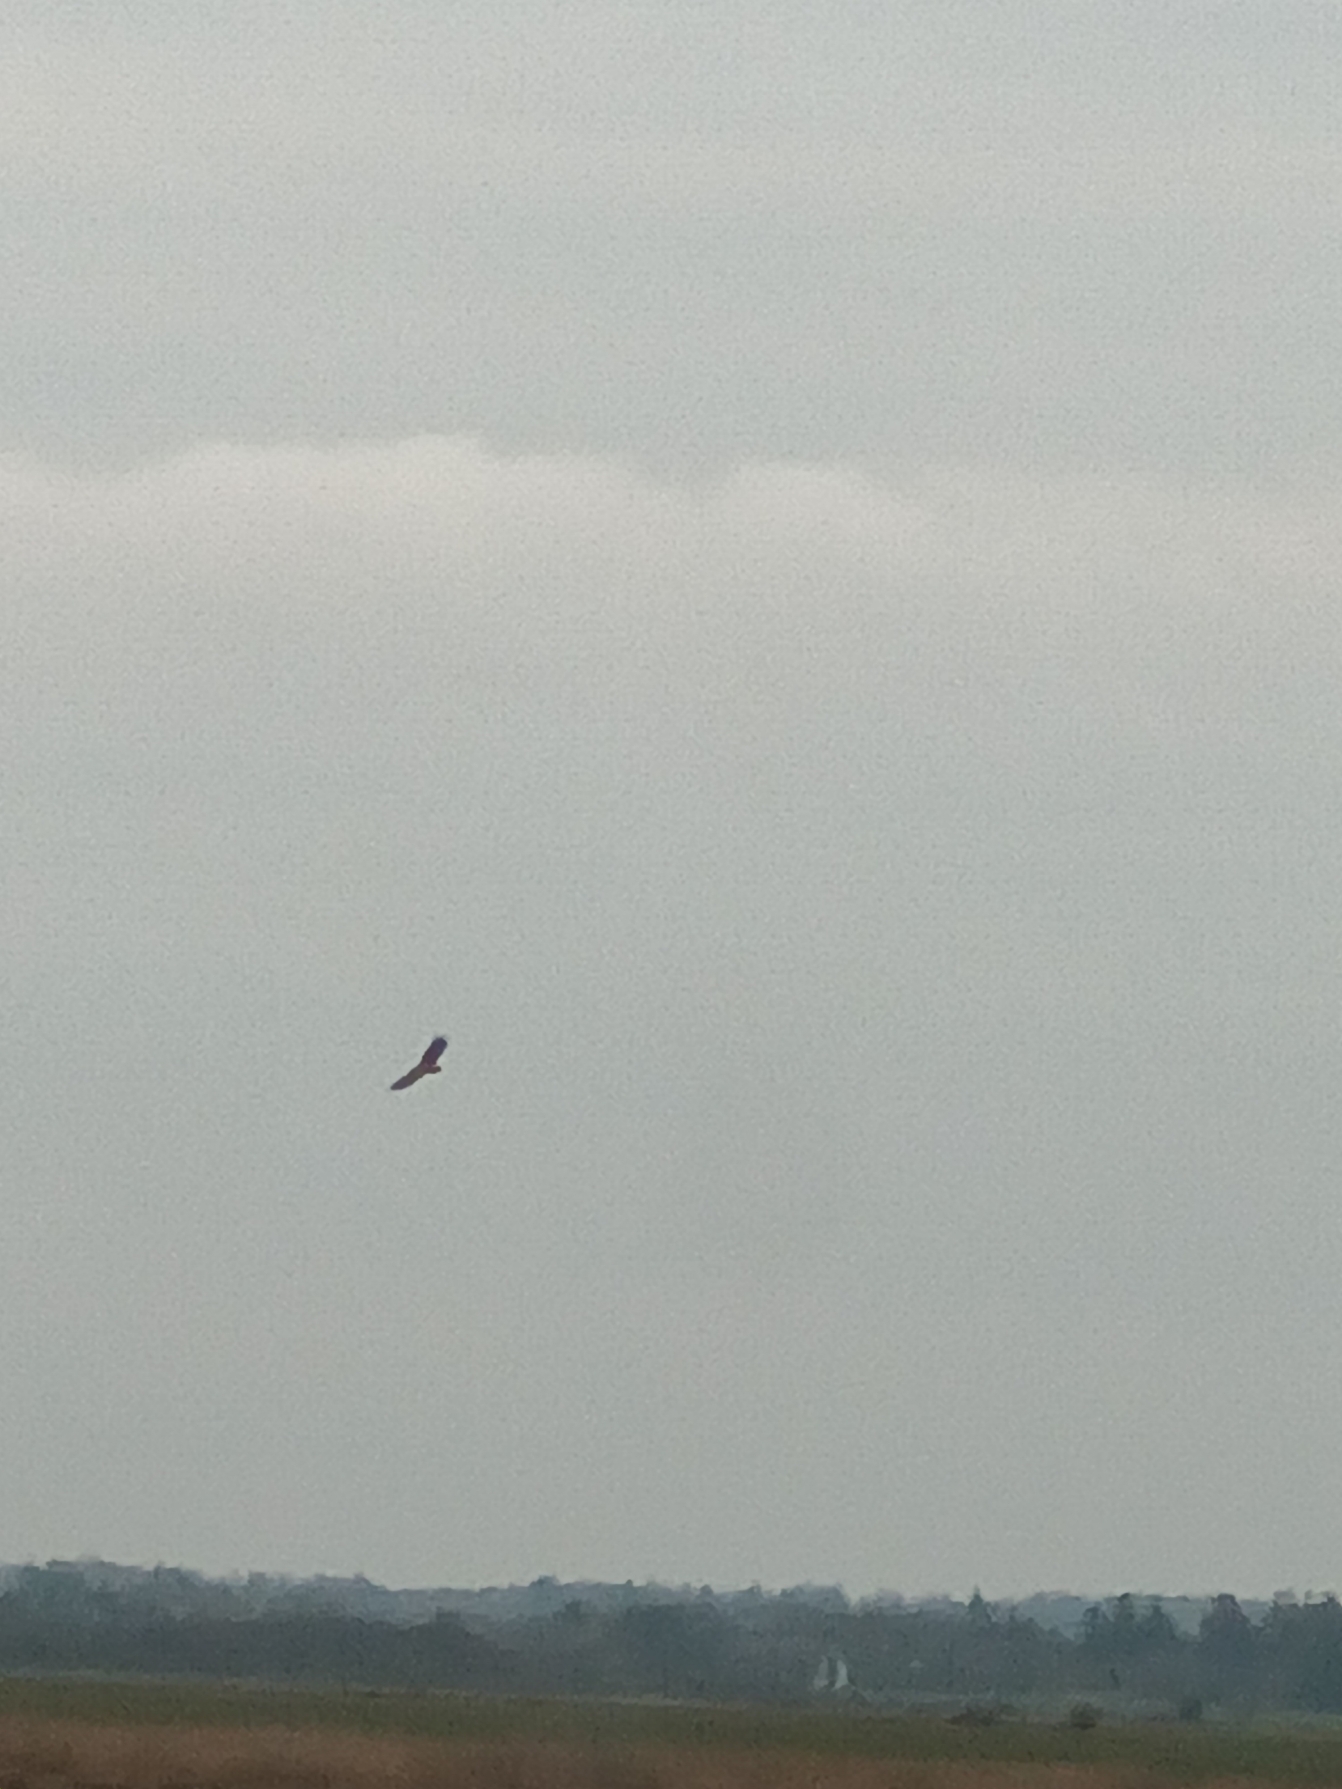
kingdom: Animalia
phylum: Chordata
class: Aves
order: Accipitriformes
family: Accipitridae
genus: Haliaeetus
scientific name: Haliaeetus albicilla
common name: Havørn
